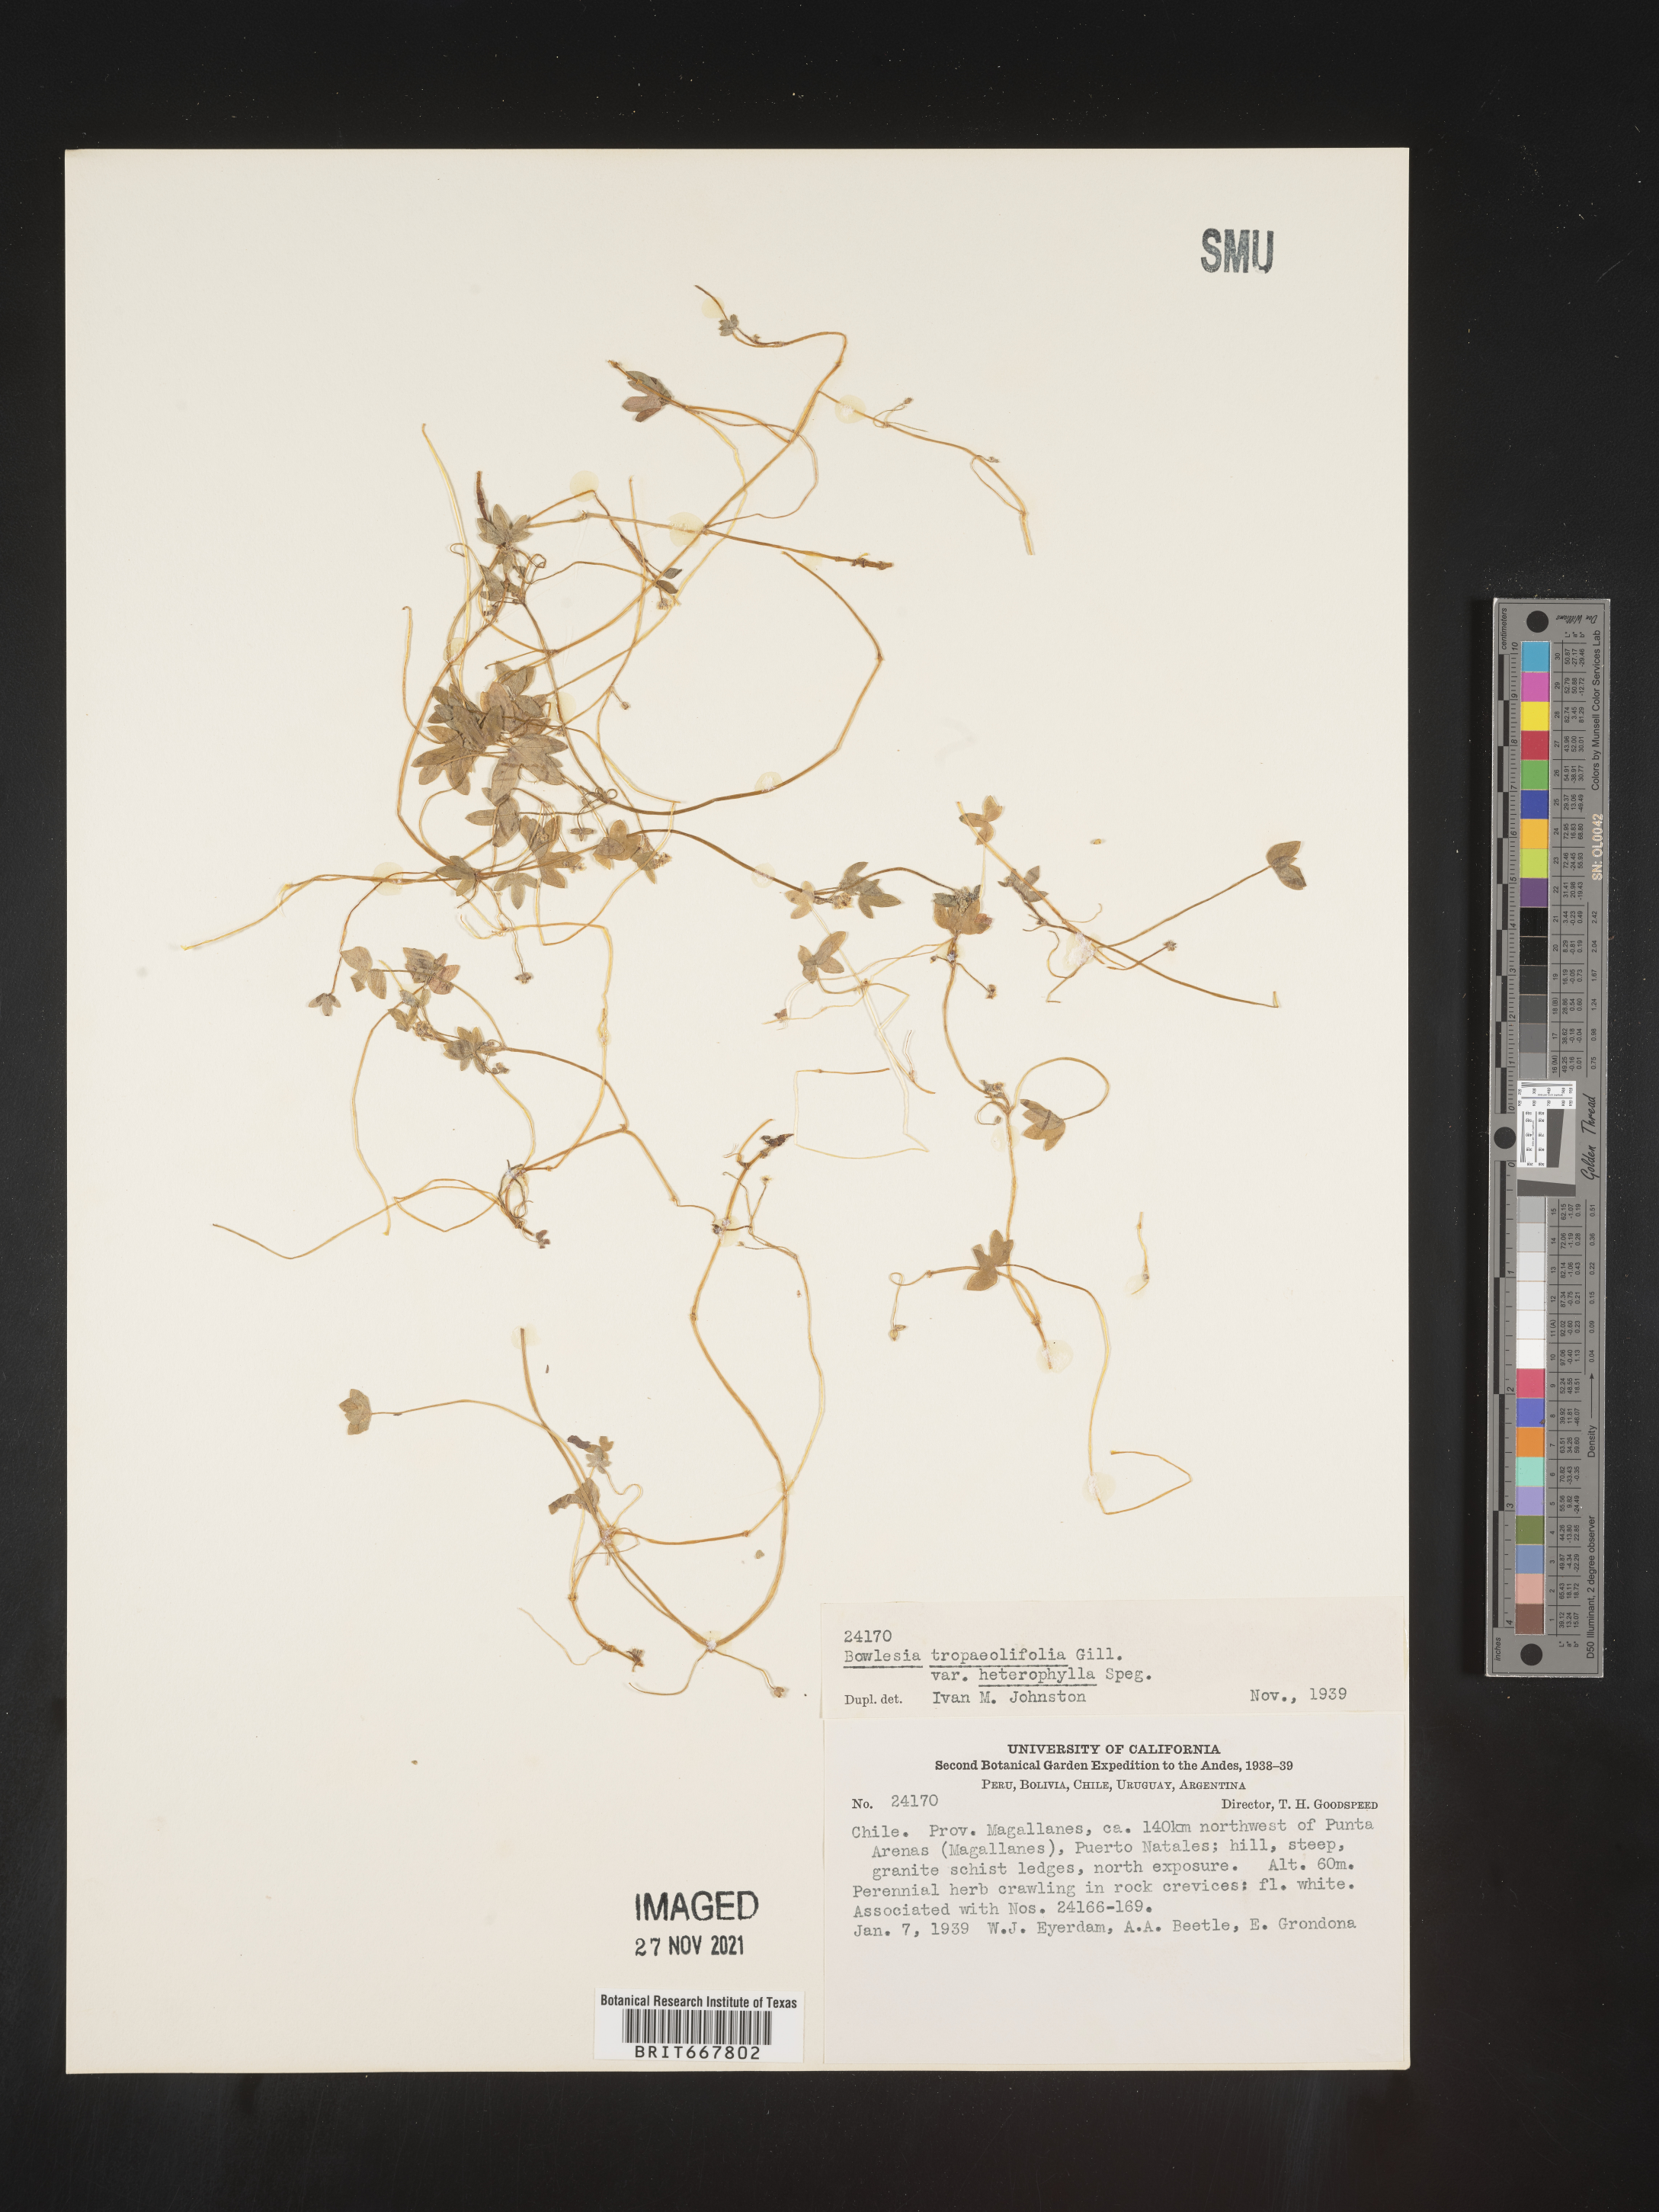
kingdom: Plantae
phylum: Tracheophyta
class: Magnoliopsida
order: Apiales
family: Apiaceae
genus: Bowlesia
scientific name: Bowlesia
